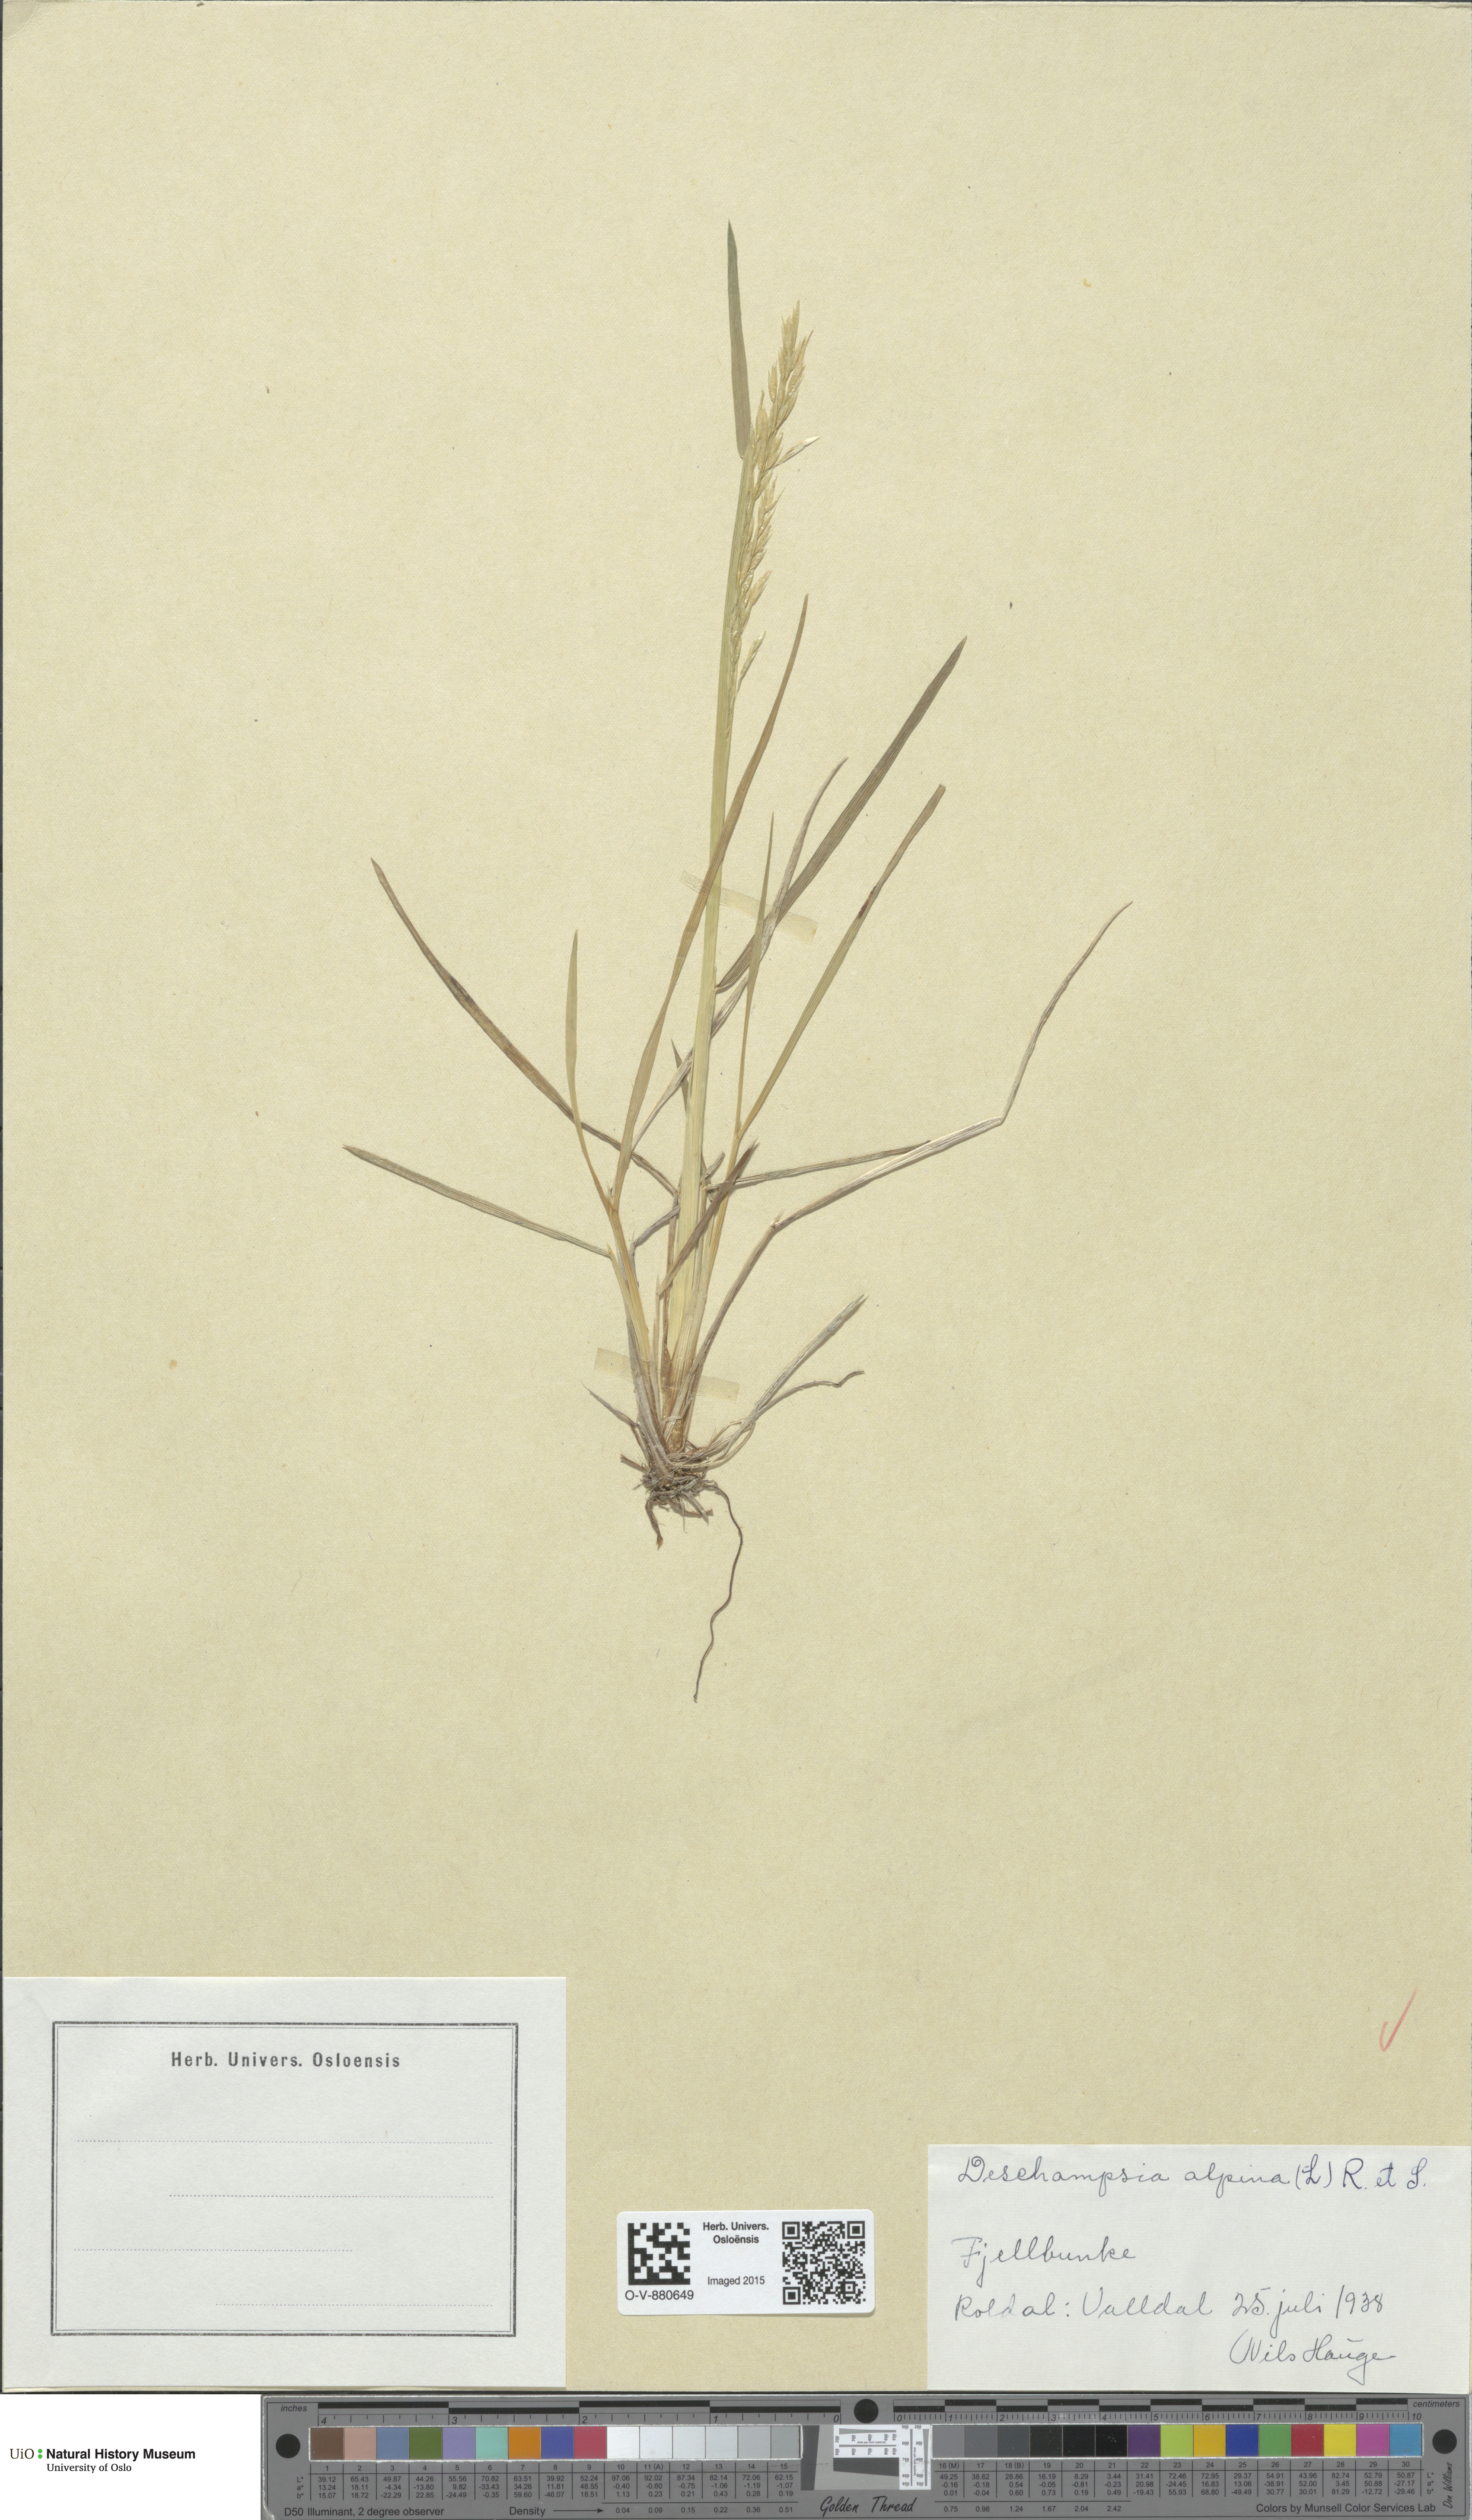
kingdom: Plantae
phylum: Tracheophyta
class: Liliopsida
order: Poales
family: Poaceae
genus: Deschampsia
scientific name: Deschampsia cespitosa
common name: Tufted hair-grass
